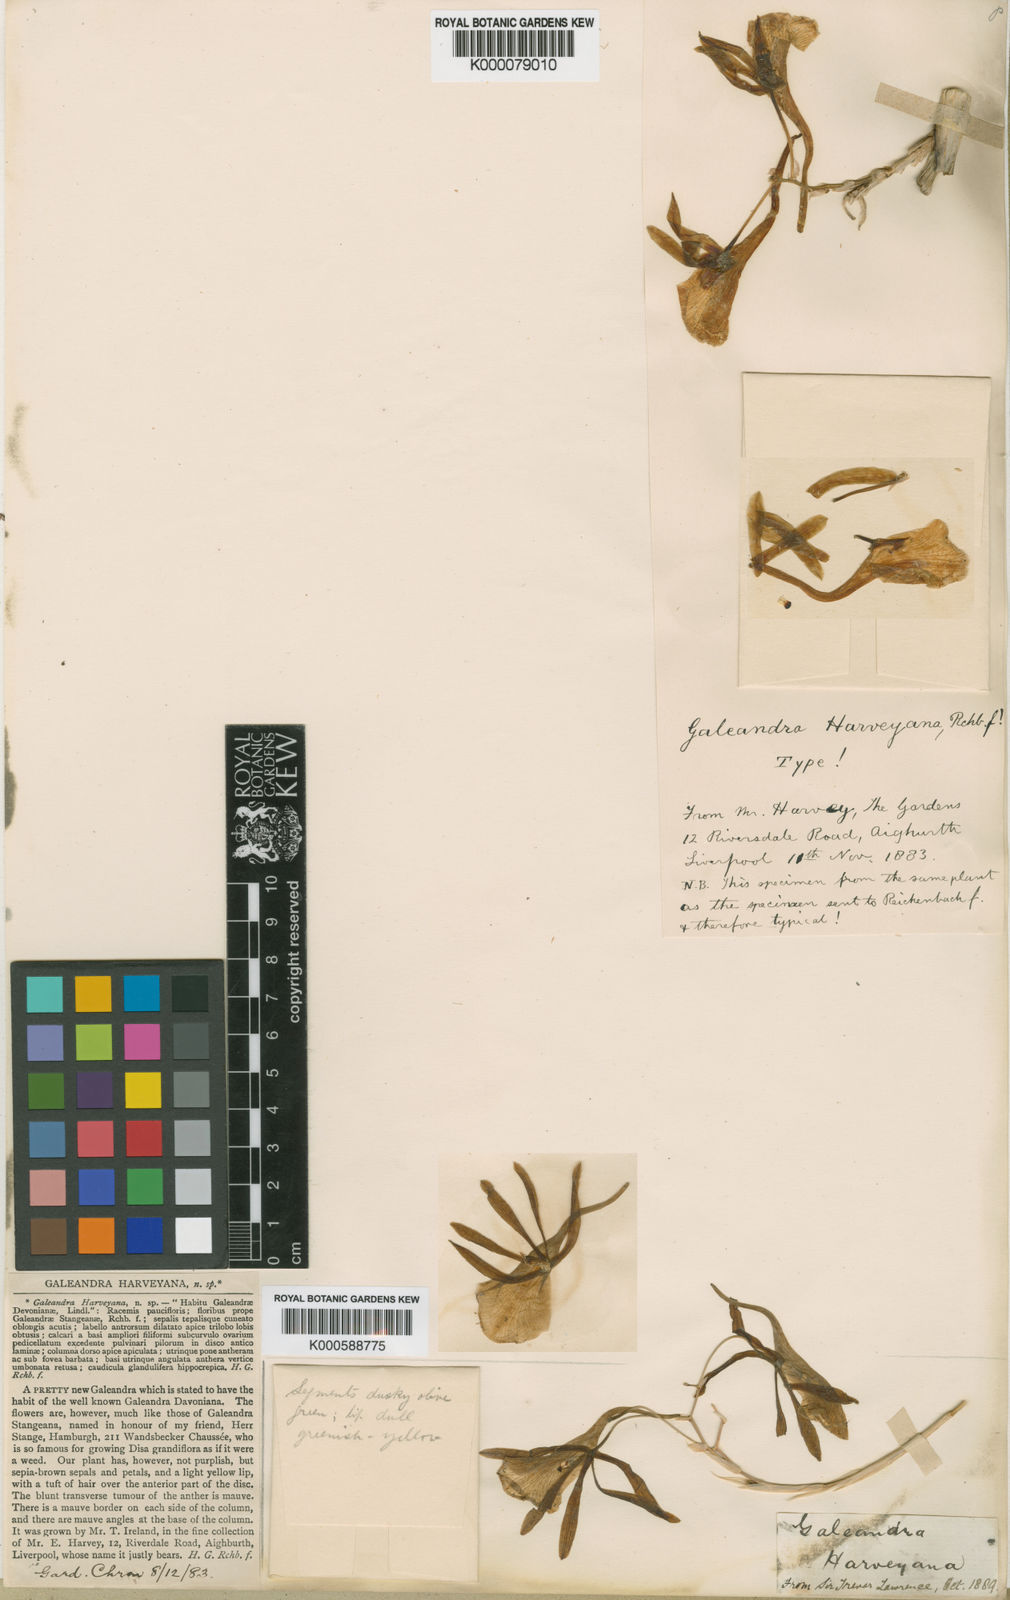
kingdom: Plantae
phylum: Tracheophyta
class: Liliopsida
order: Asparagales
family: Orchidaceae
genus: Galeandra
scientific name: Galeandra harveyana
